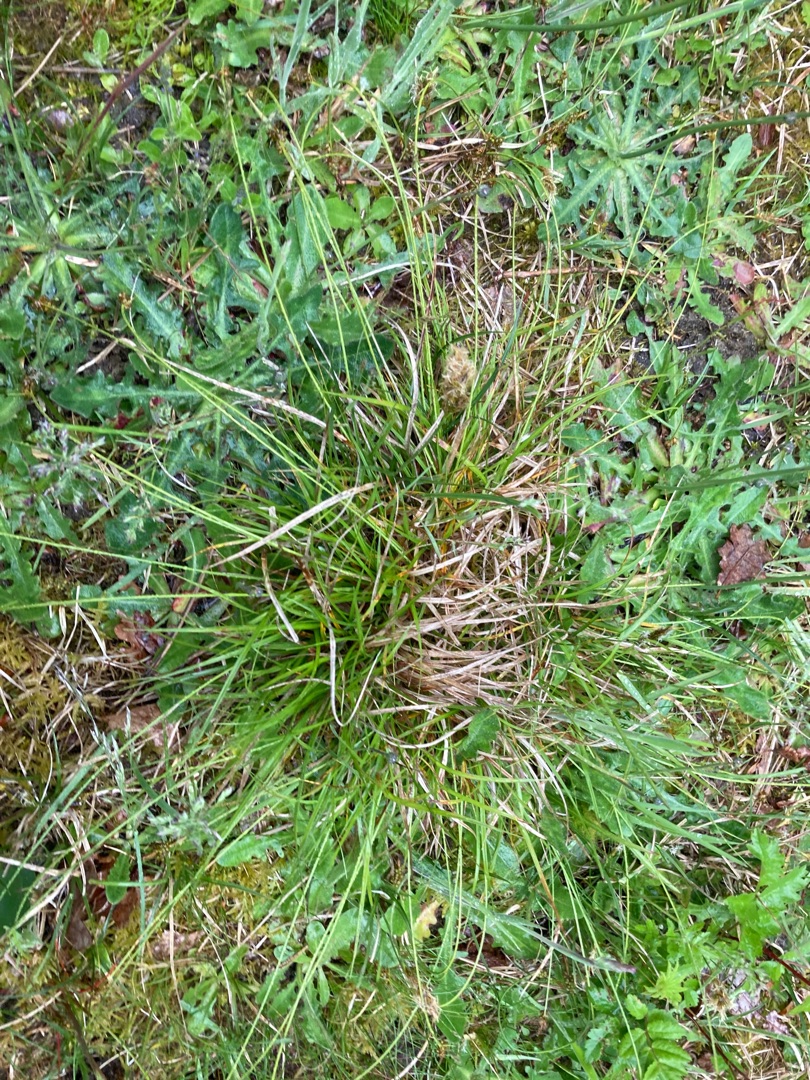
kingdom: Plantae
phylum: Tracheophyta
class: Liliopsida
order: Poales
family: Cyperaceae
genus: Carex
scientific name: Carex pilulifera
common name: Pille-star
